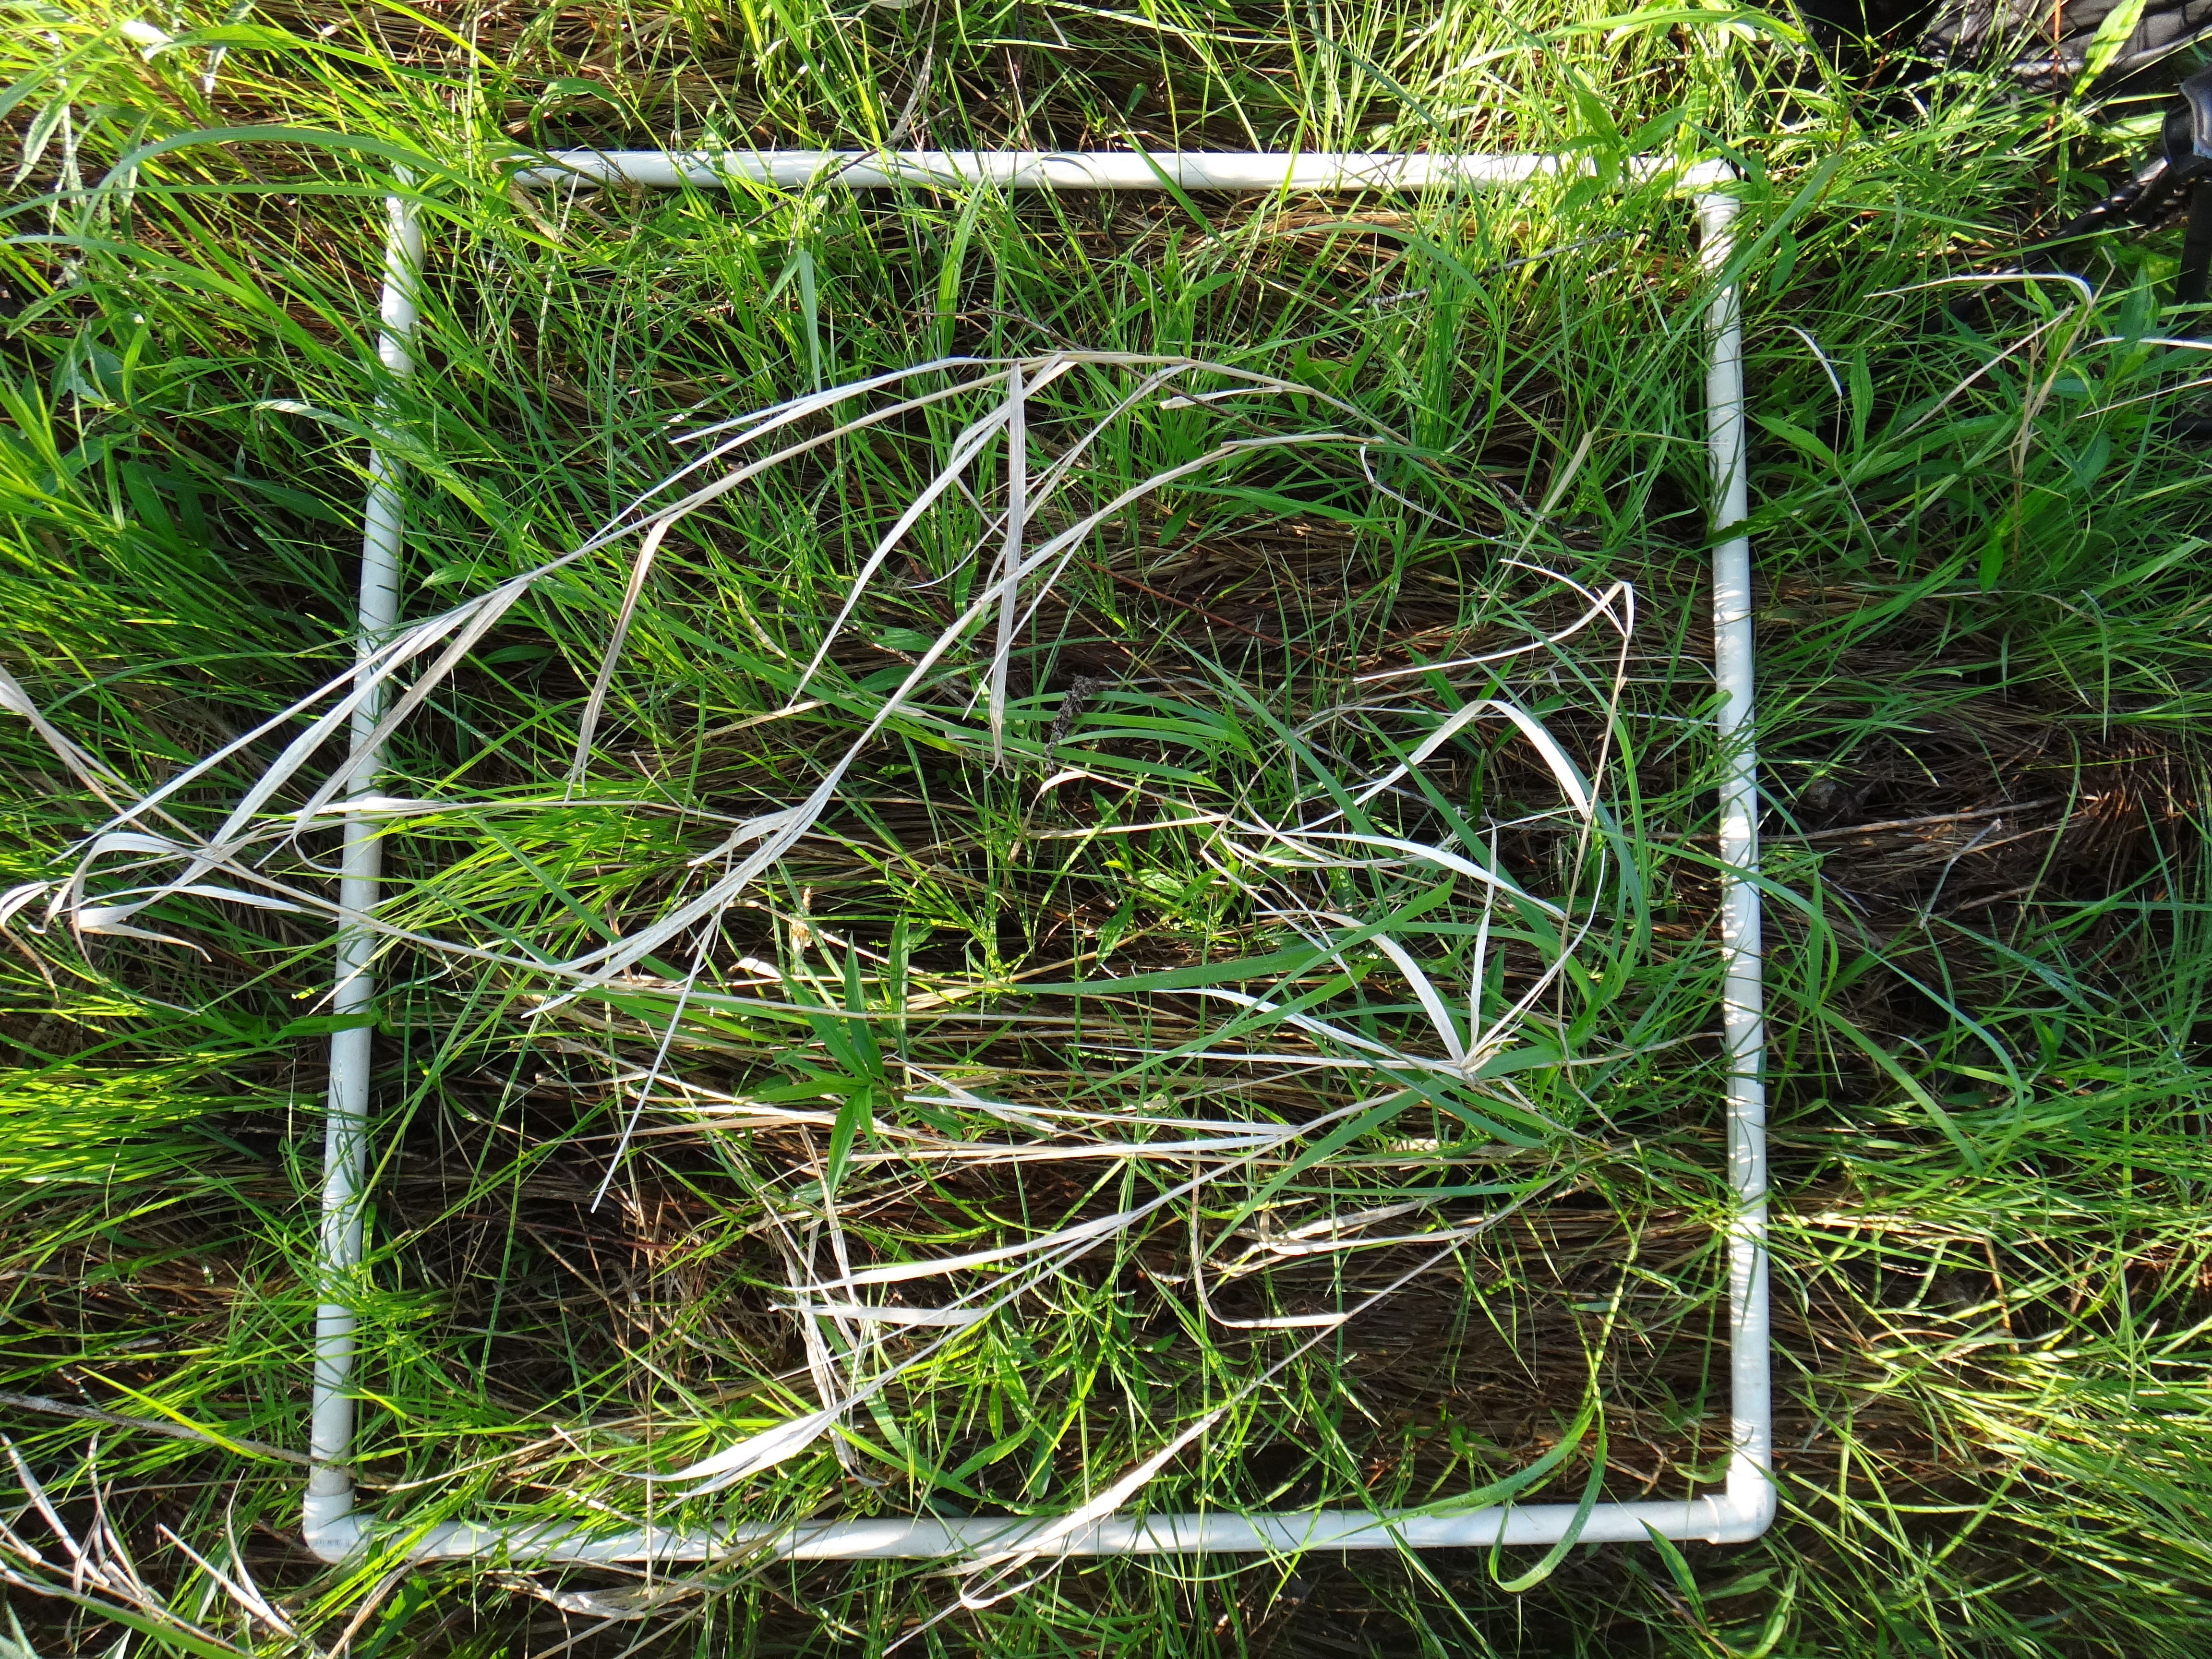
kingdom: Plantae
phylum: Tracheophyta
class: Magnoliopsida
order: Rosales
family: Rhamnaceae
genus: Frangula
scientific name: Frangula alnus
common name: Alder buckthorn
